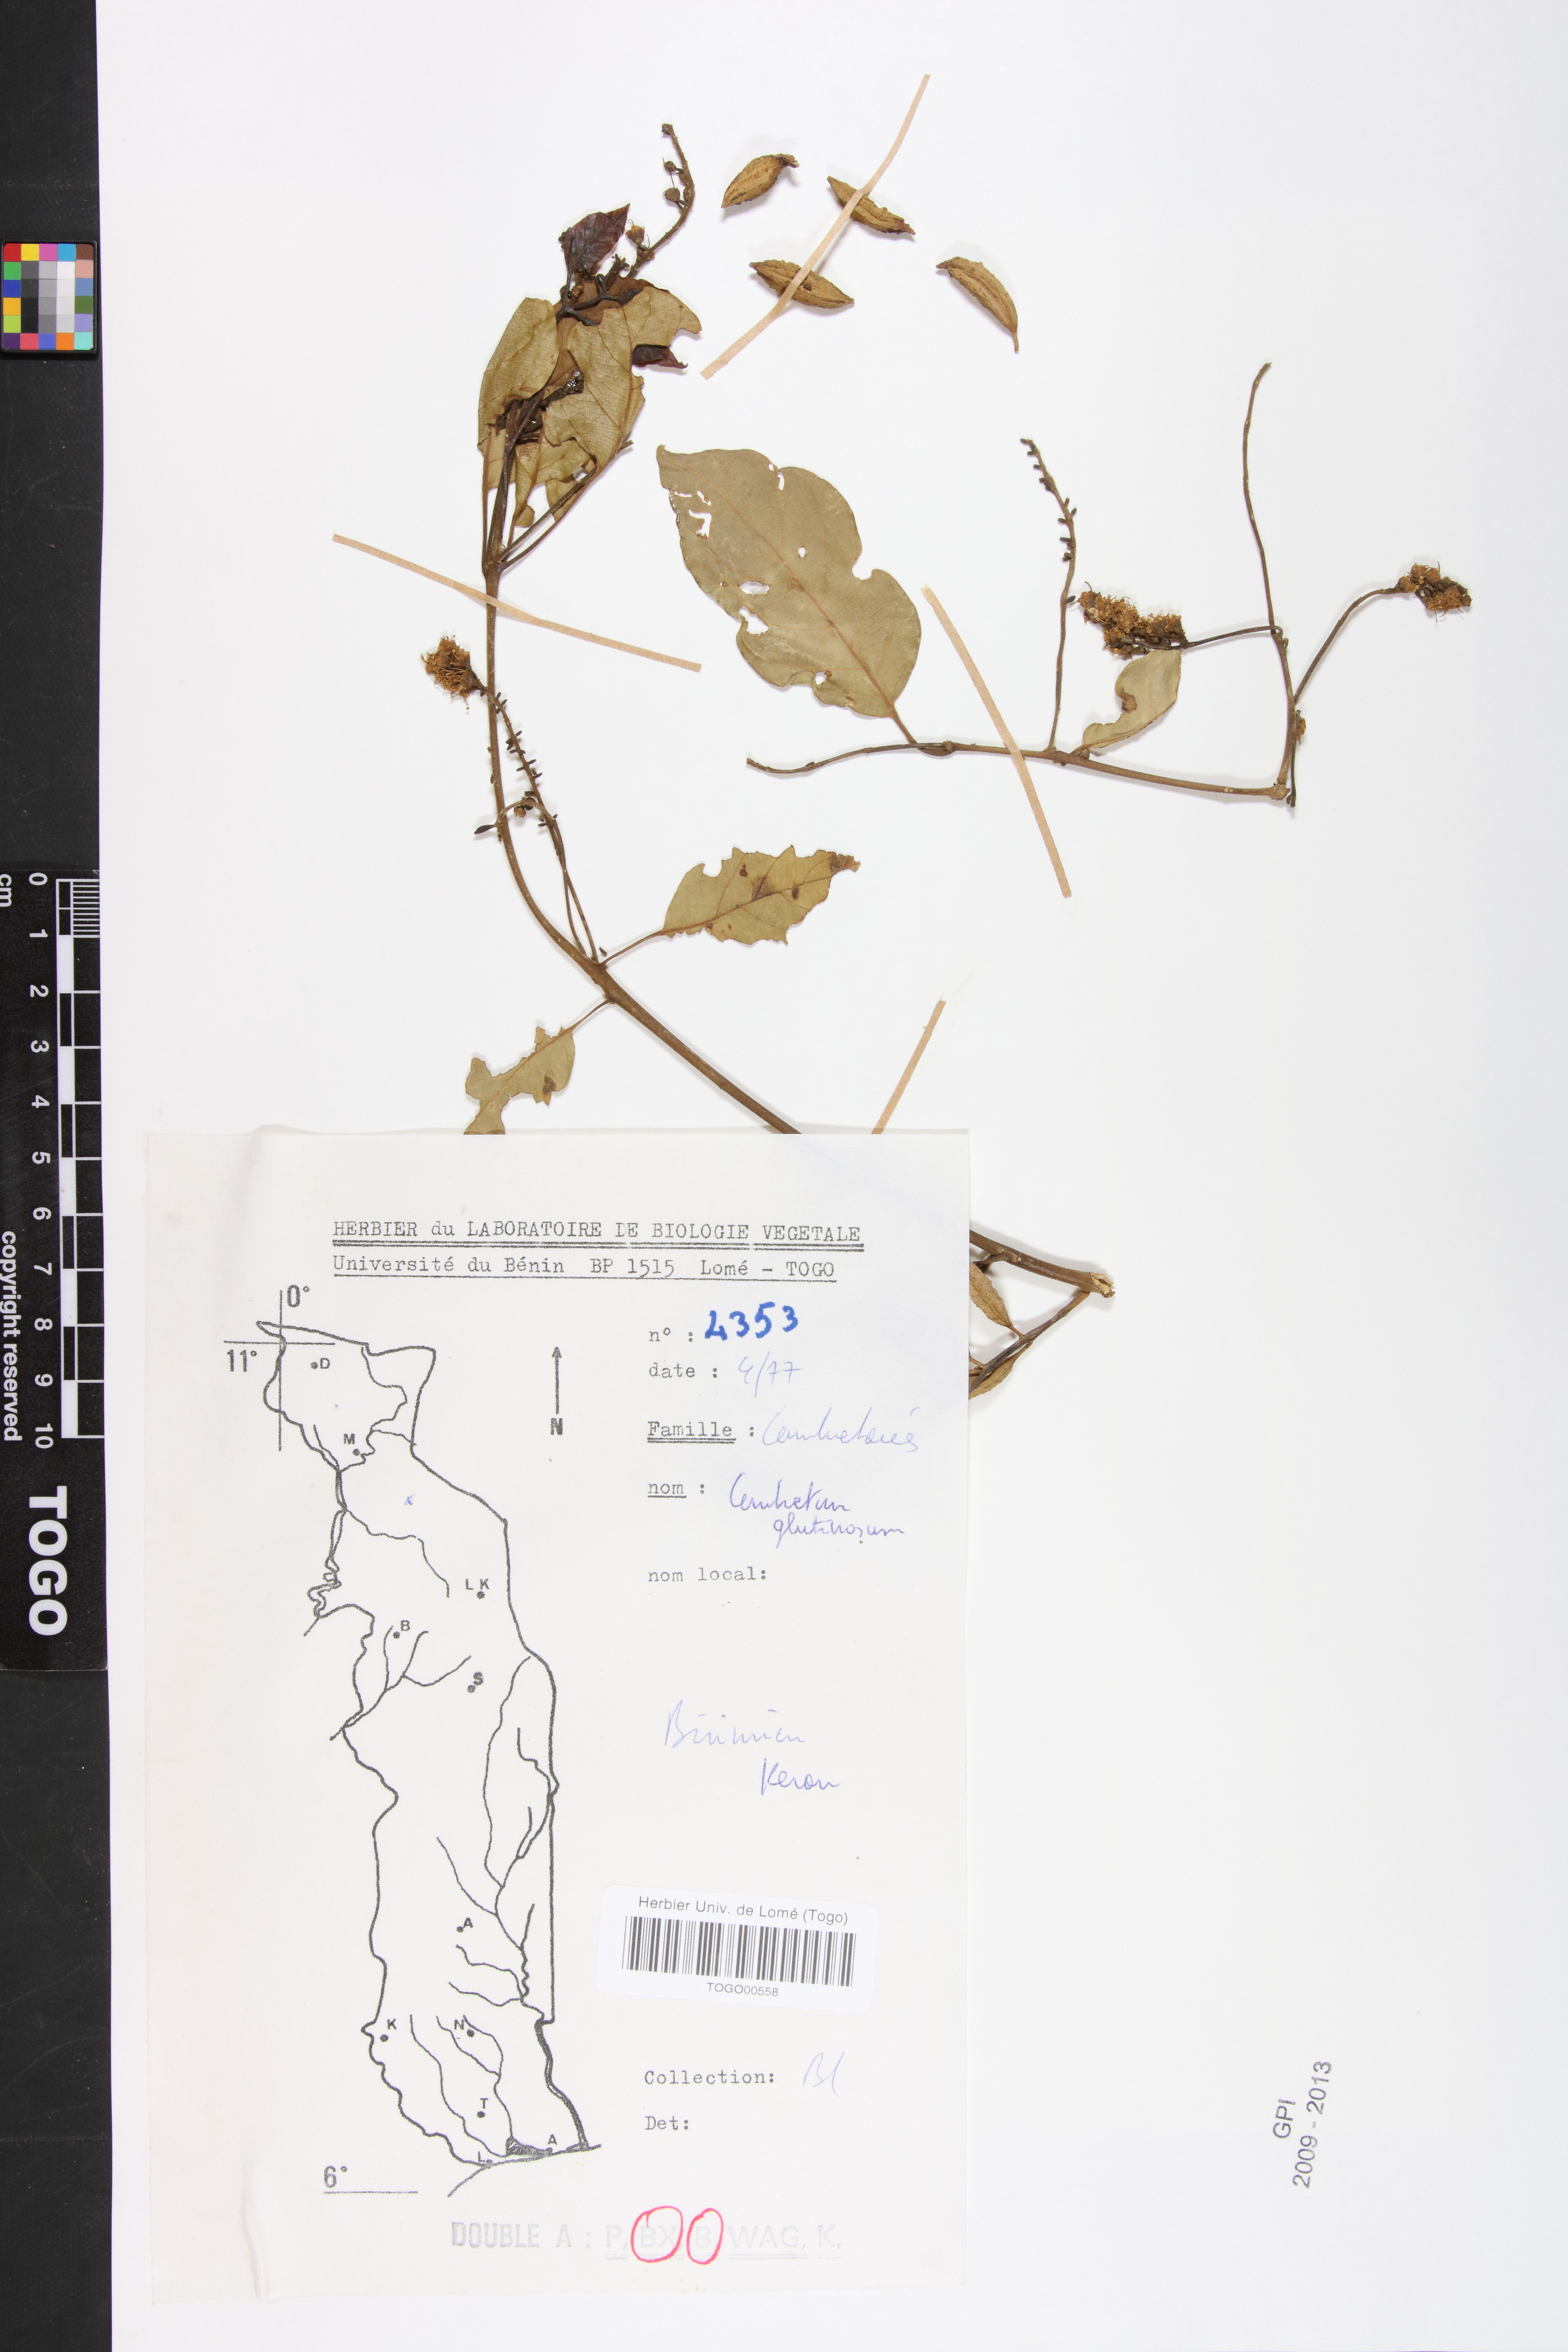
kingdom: Plantae
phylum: Tracheophyta
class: Magnoliopsida
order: Myrtales
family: Combretaceae
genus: Combretum
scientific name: Combretum glutinosum
